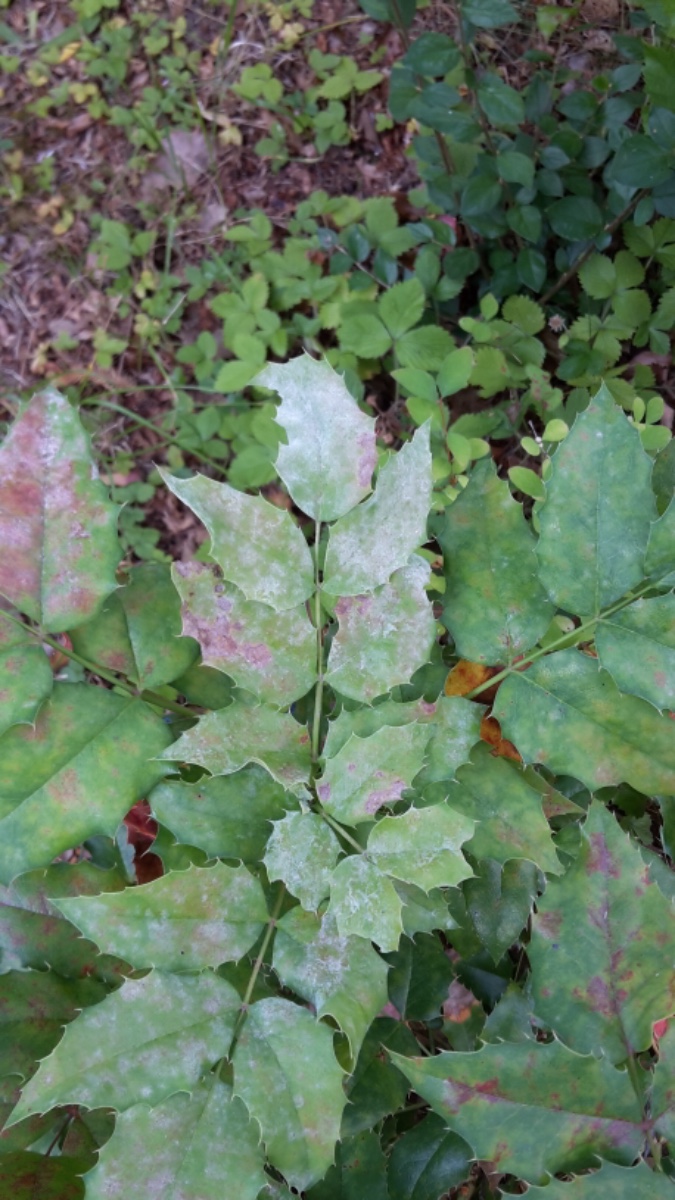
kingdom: Fungi
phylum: Ascomycota
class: Leotiomycetes
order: Helotiales
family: Erysiphaceae
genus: Erysiphe
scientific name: Erysiphe berberidis
